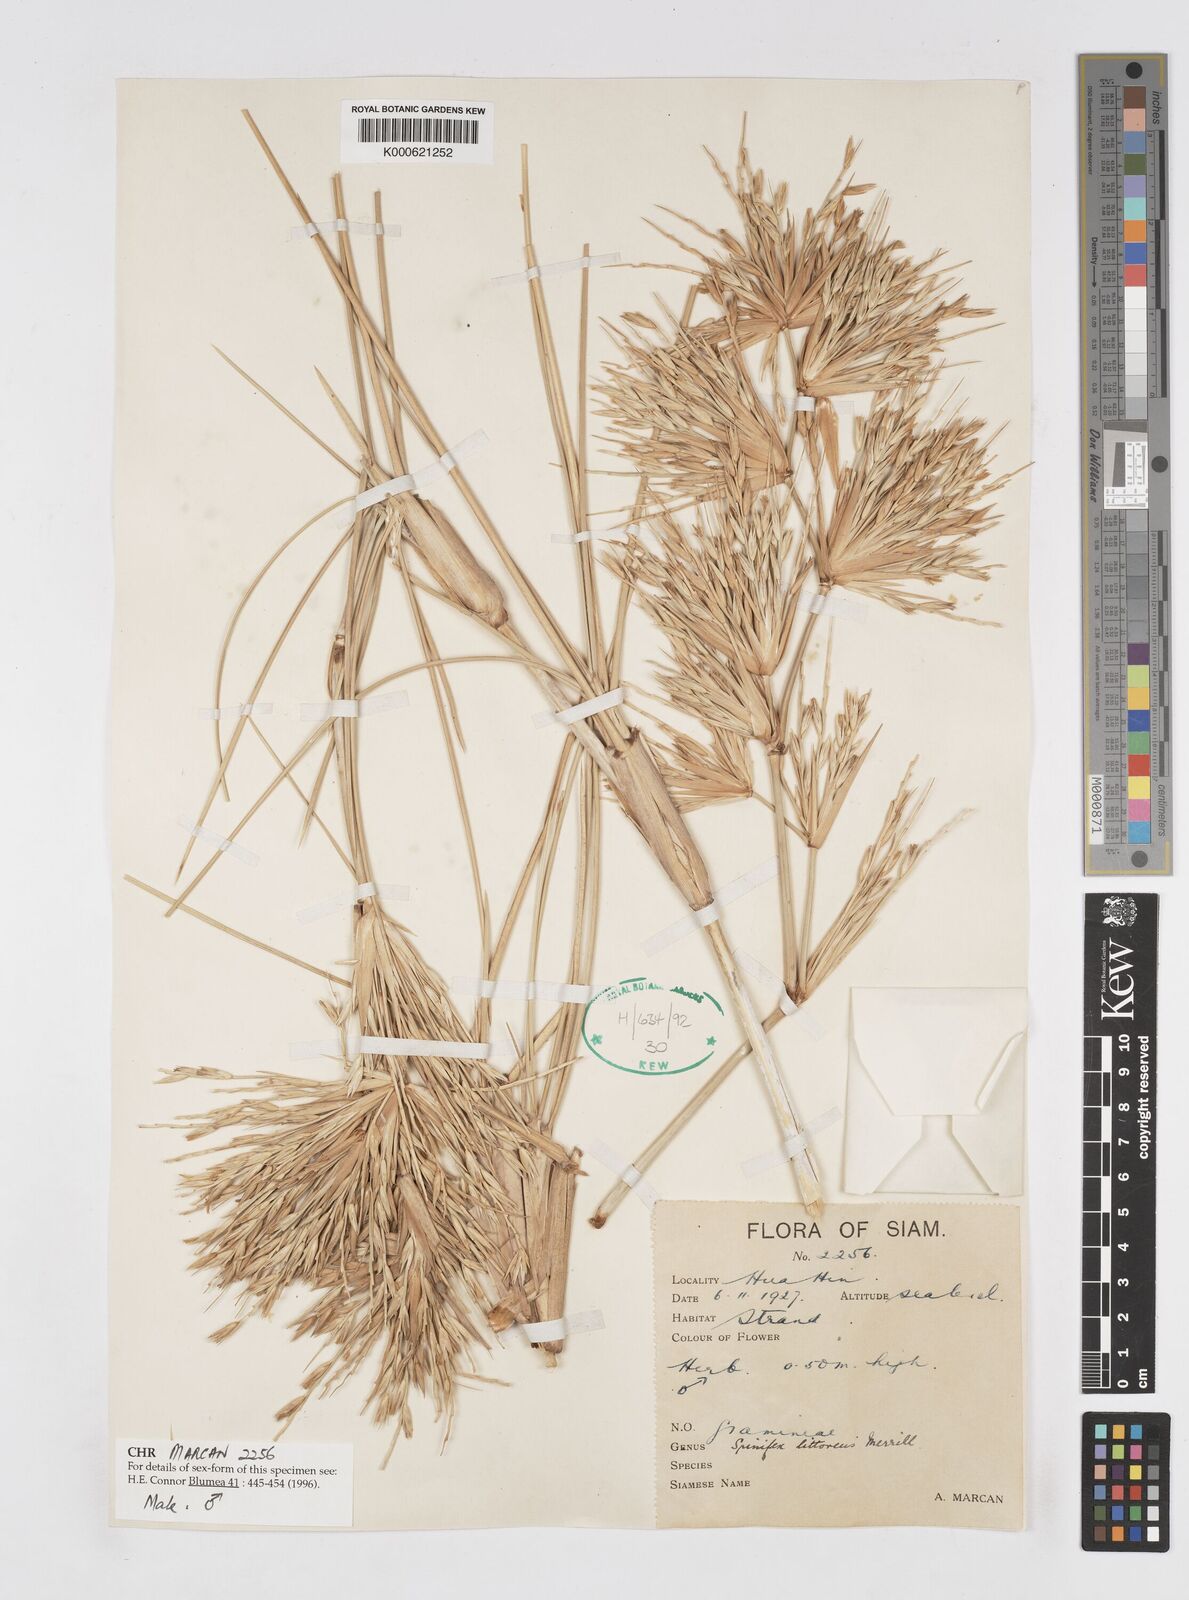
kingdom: Plantae
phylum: Tracheophyta
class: Liliopsida
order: Poales
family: Poaceae
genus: Spinifex
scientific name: Spinifex littoreus
